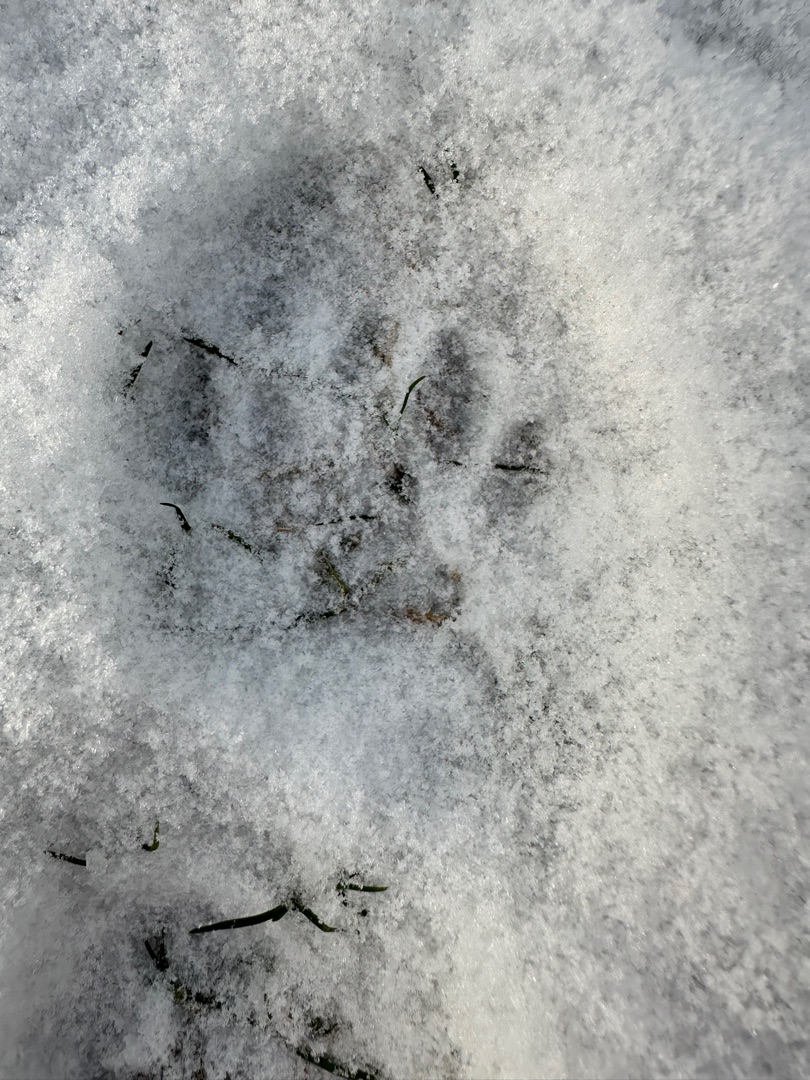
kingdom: Animalia
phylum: Chordata
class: Mammalia
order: Carnivora
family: Mustelidae
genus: Lutra
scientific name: Lutra lutra
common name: Odder
